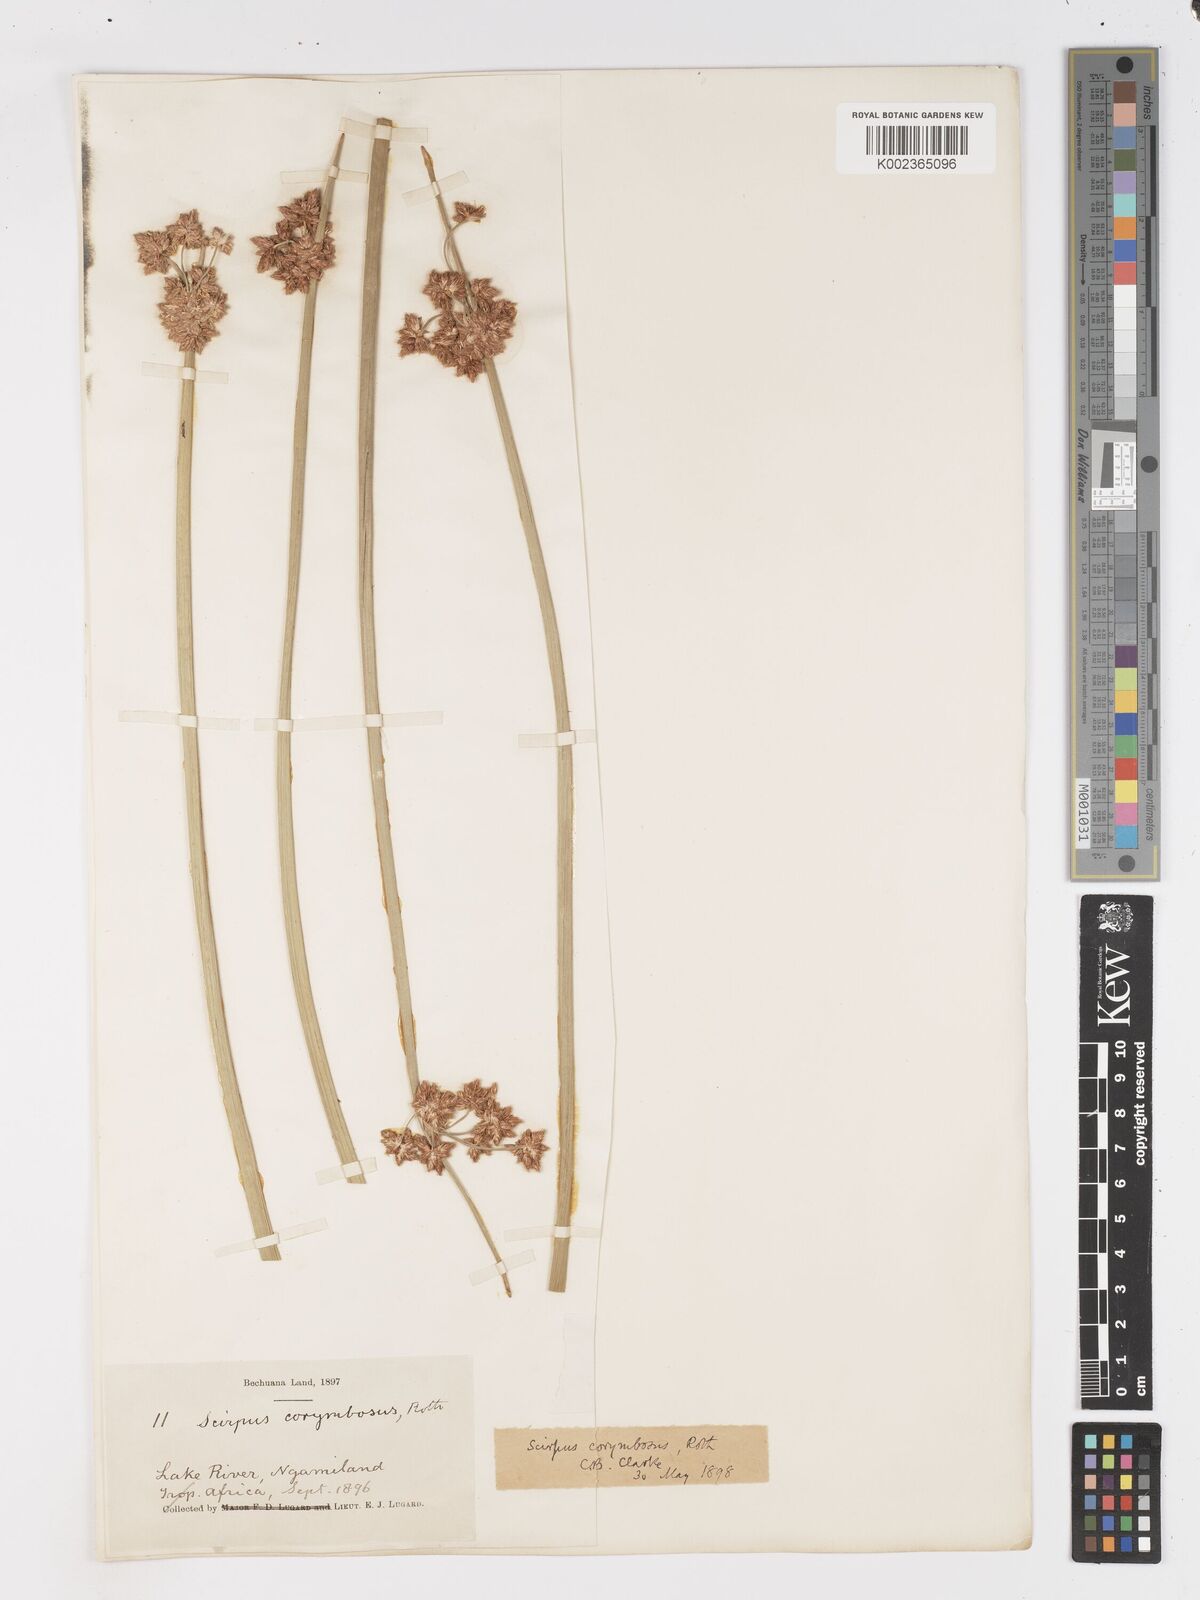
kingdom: Plantae
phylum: Tracheophyta
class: Liliopsida
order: Poales
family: Cyperaceae
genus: Schoenoplectiella
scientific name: Schoenoplectiella corymbosa
